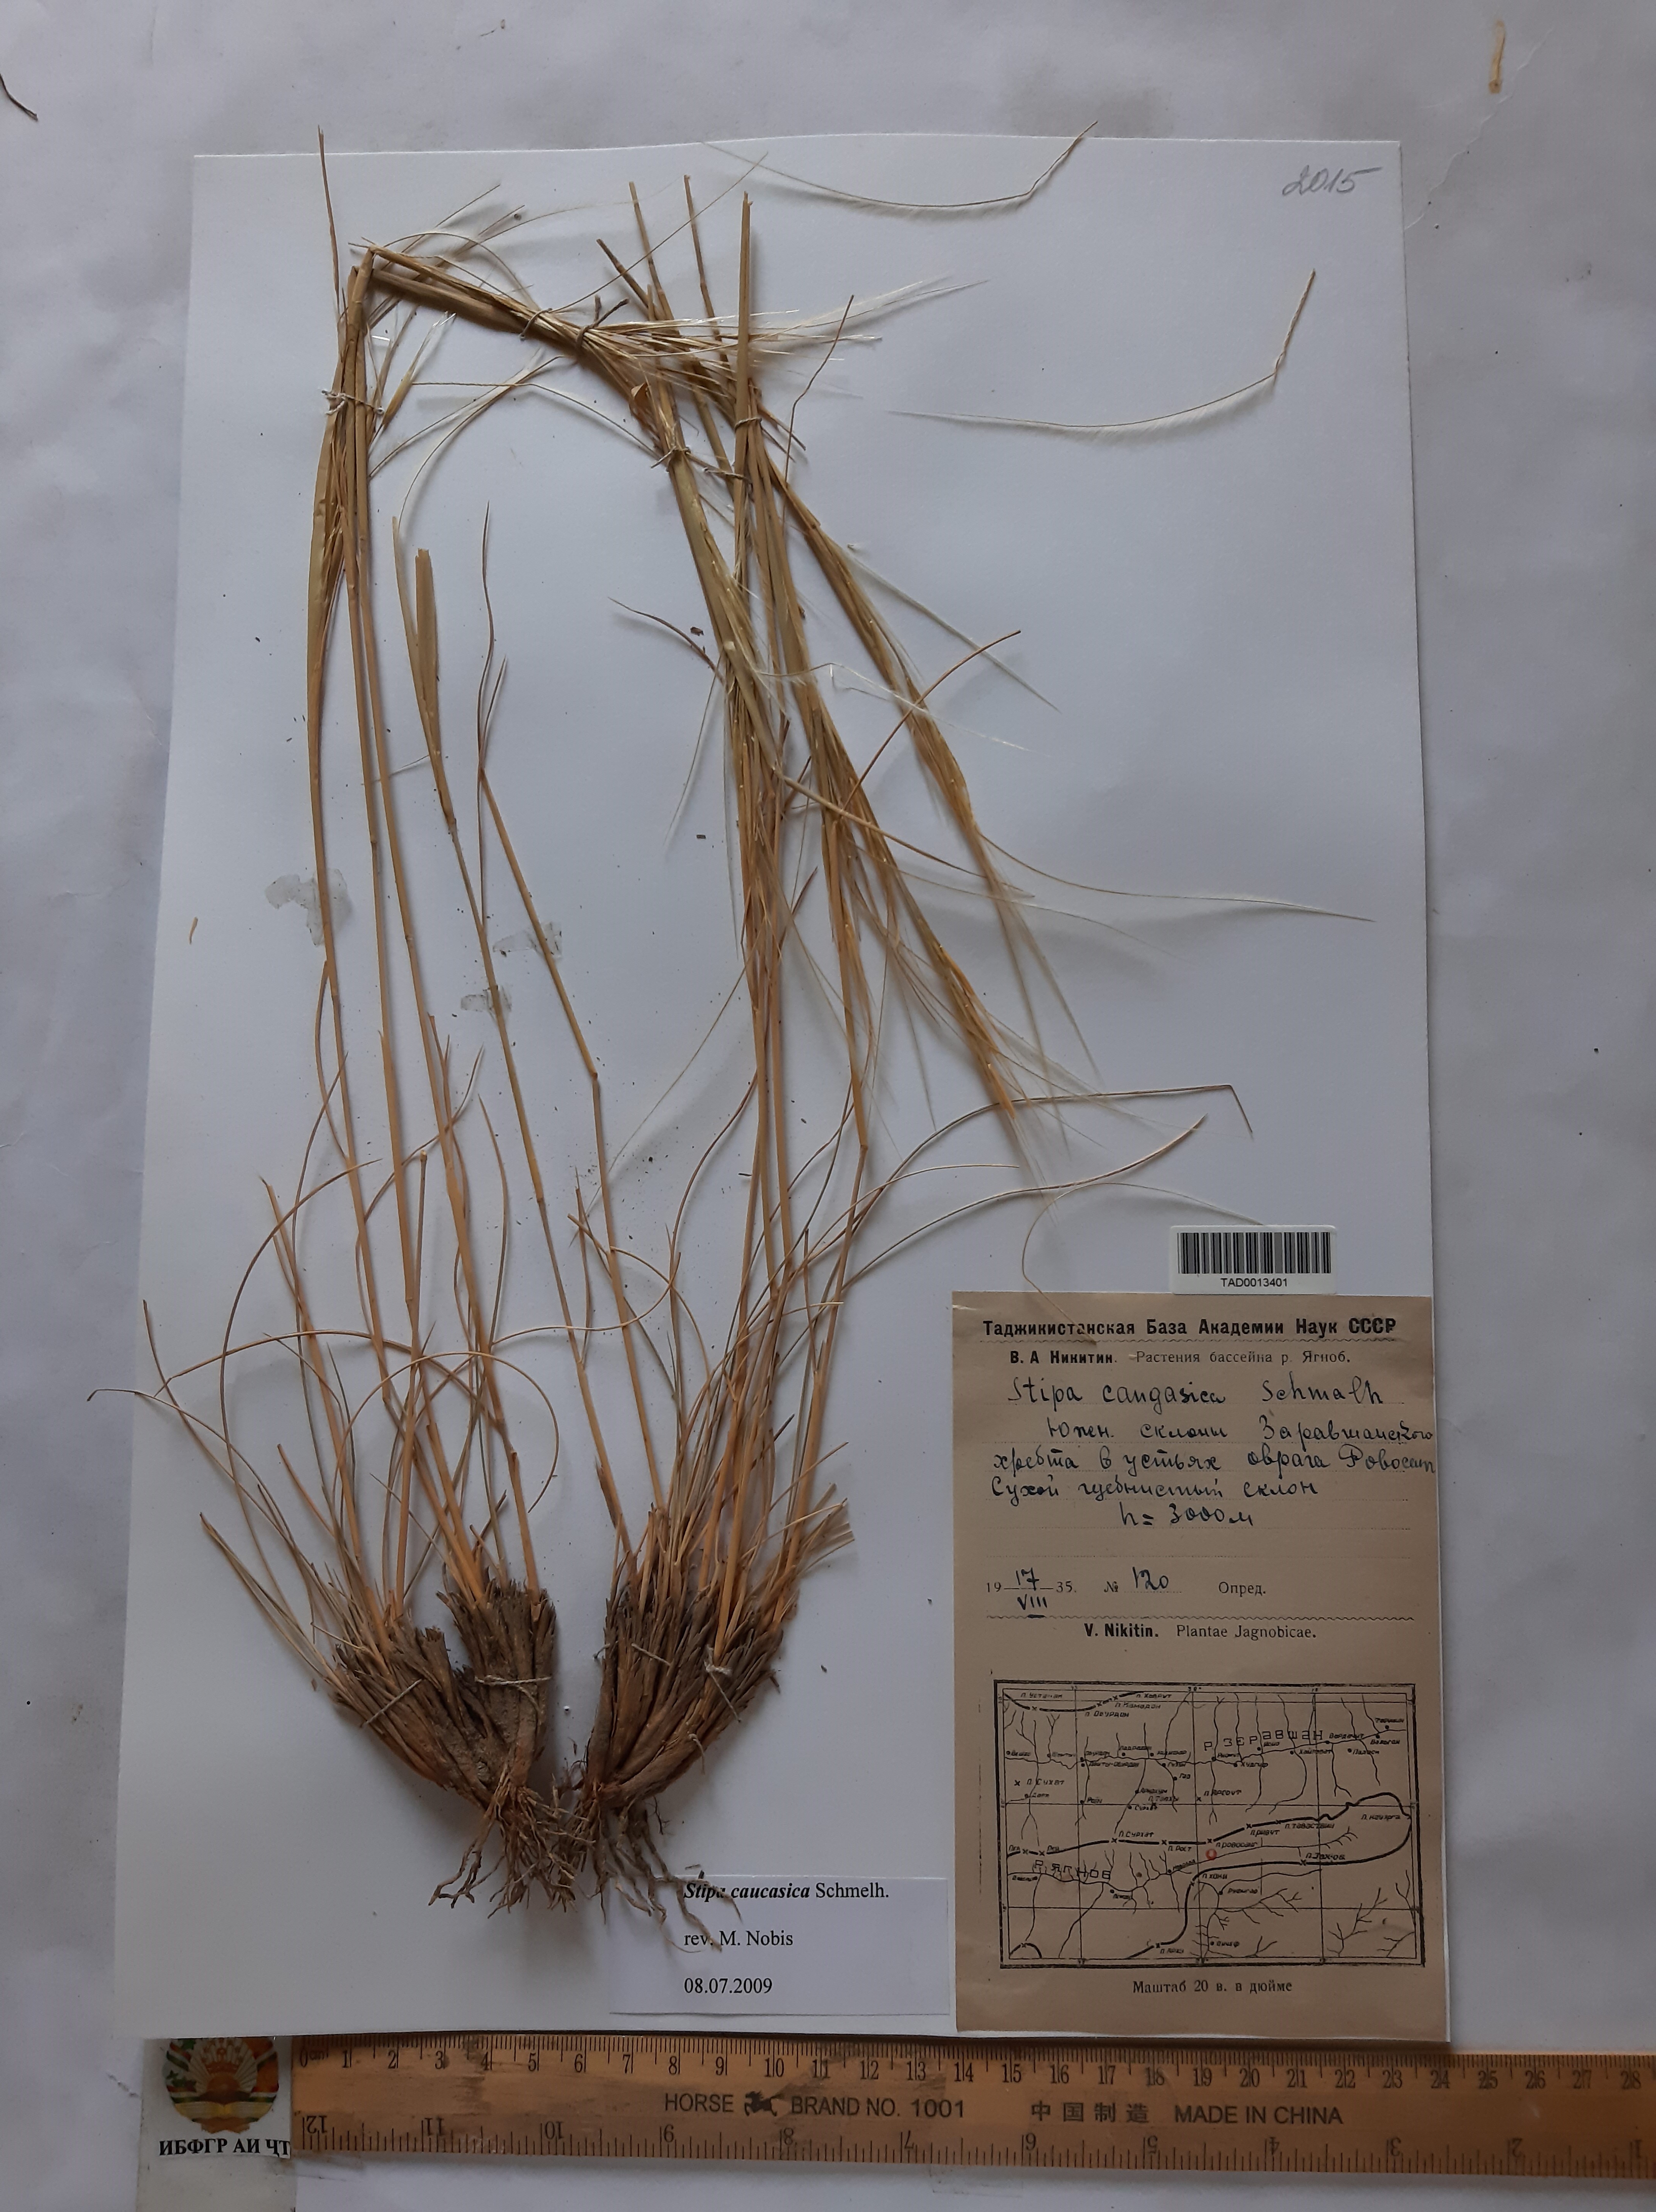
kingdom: Plantae
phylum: Tracheophyta
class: Liliopsida
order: Poales
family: Poaceae
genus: Stipa
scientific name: Stipa caucasica
